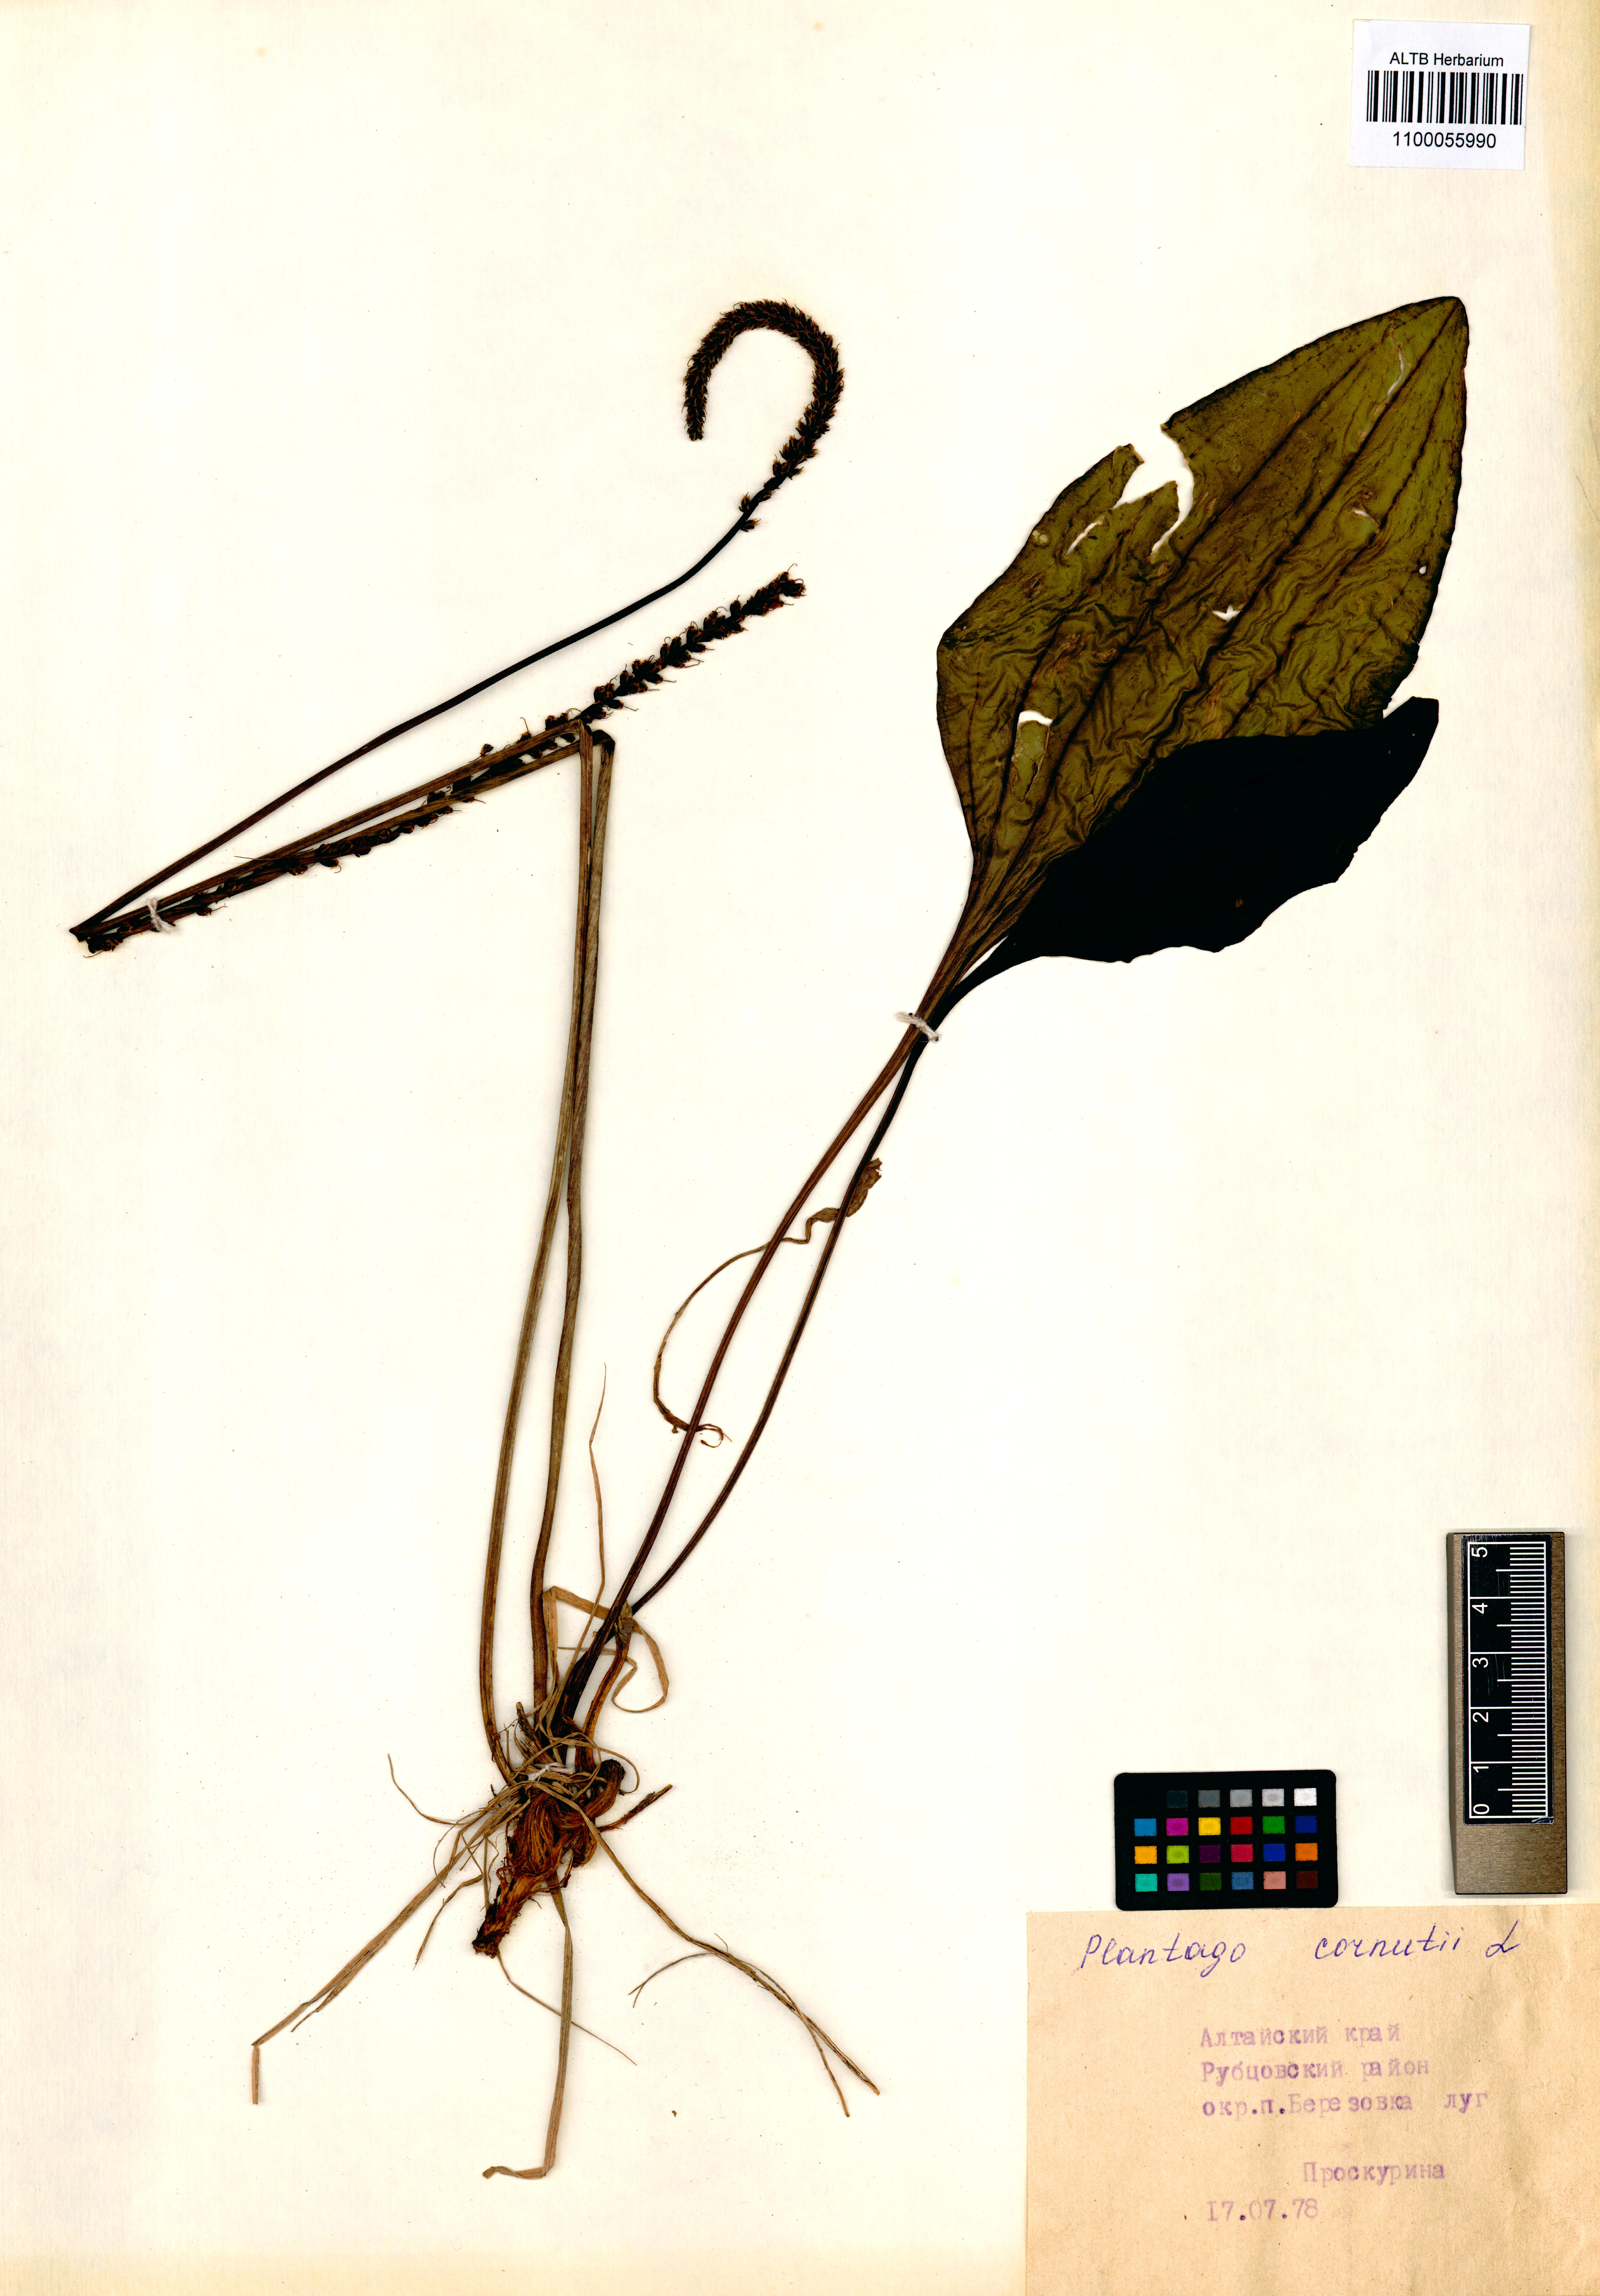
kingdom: Plantae
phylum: Tracheophyta
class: Magnoliopsida
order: Lamiales
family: Plantaginaceae
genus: Plantago
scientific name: Plantago cornuti
